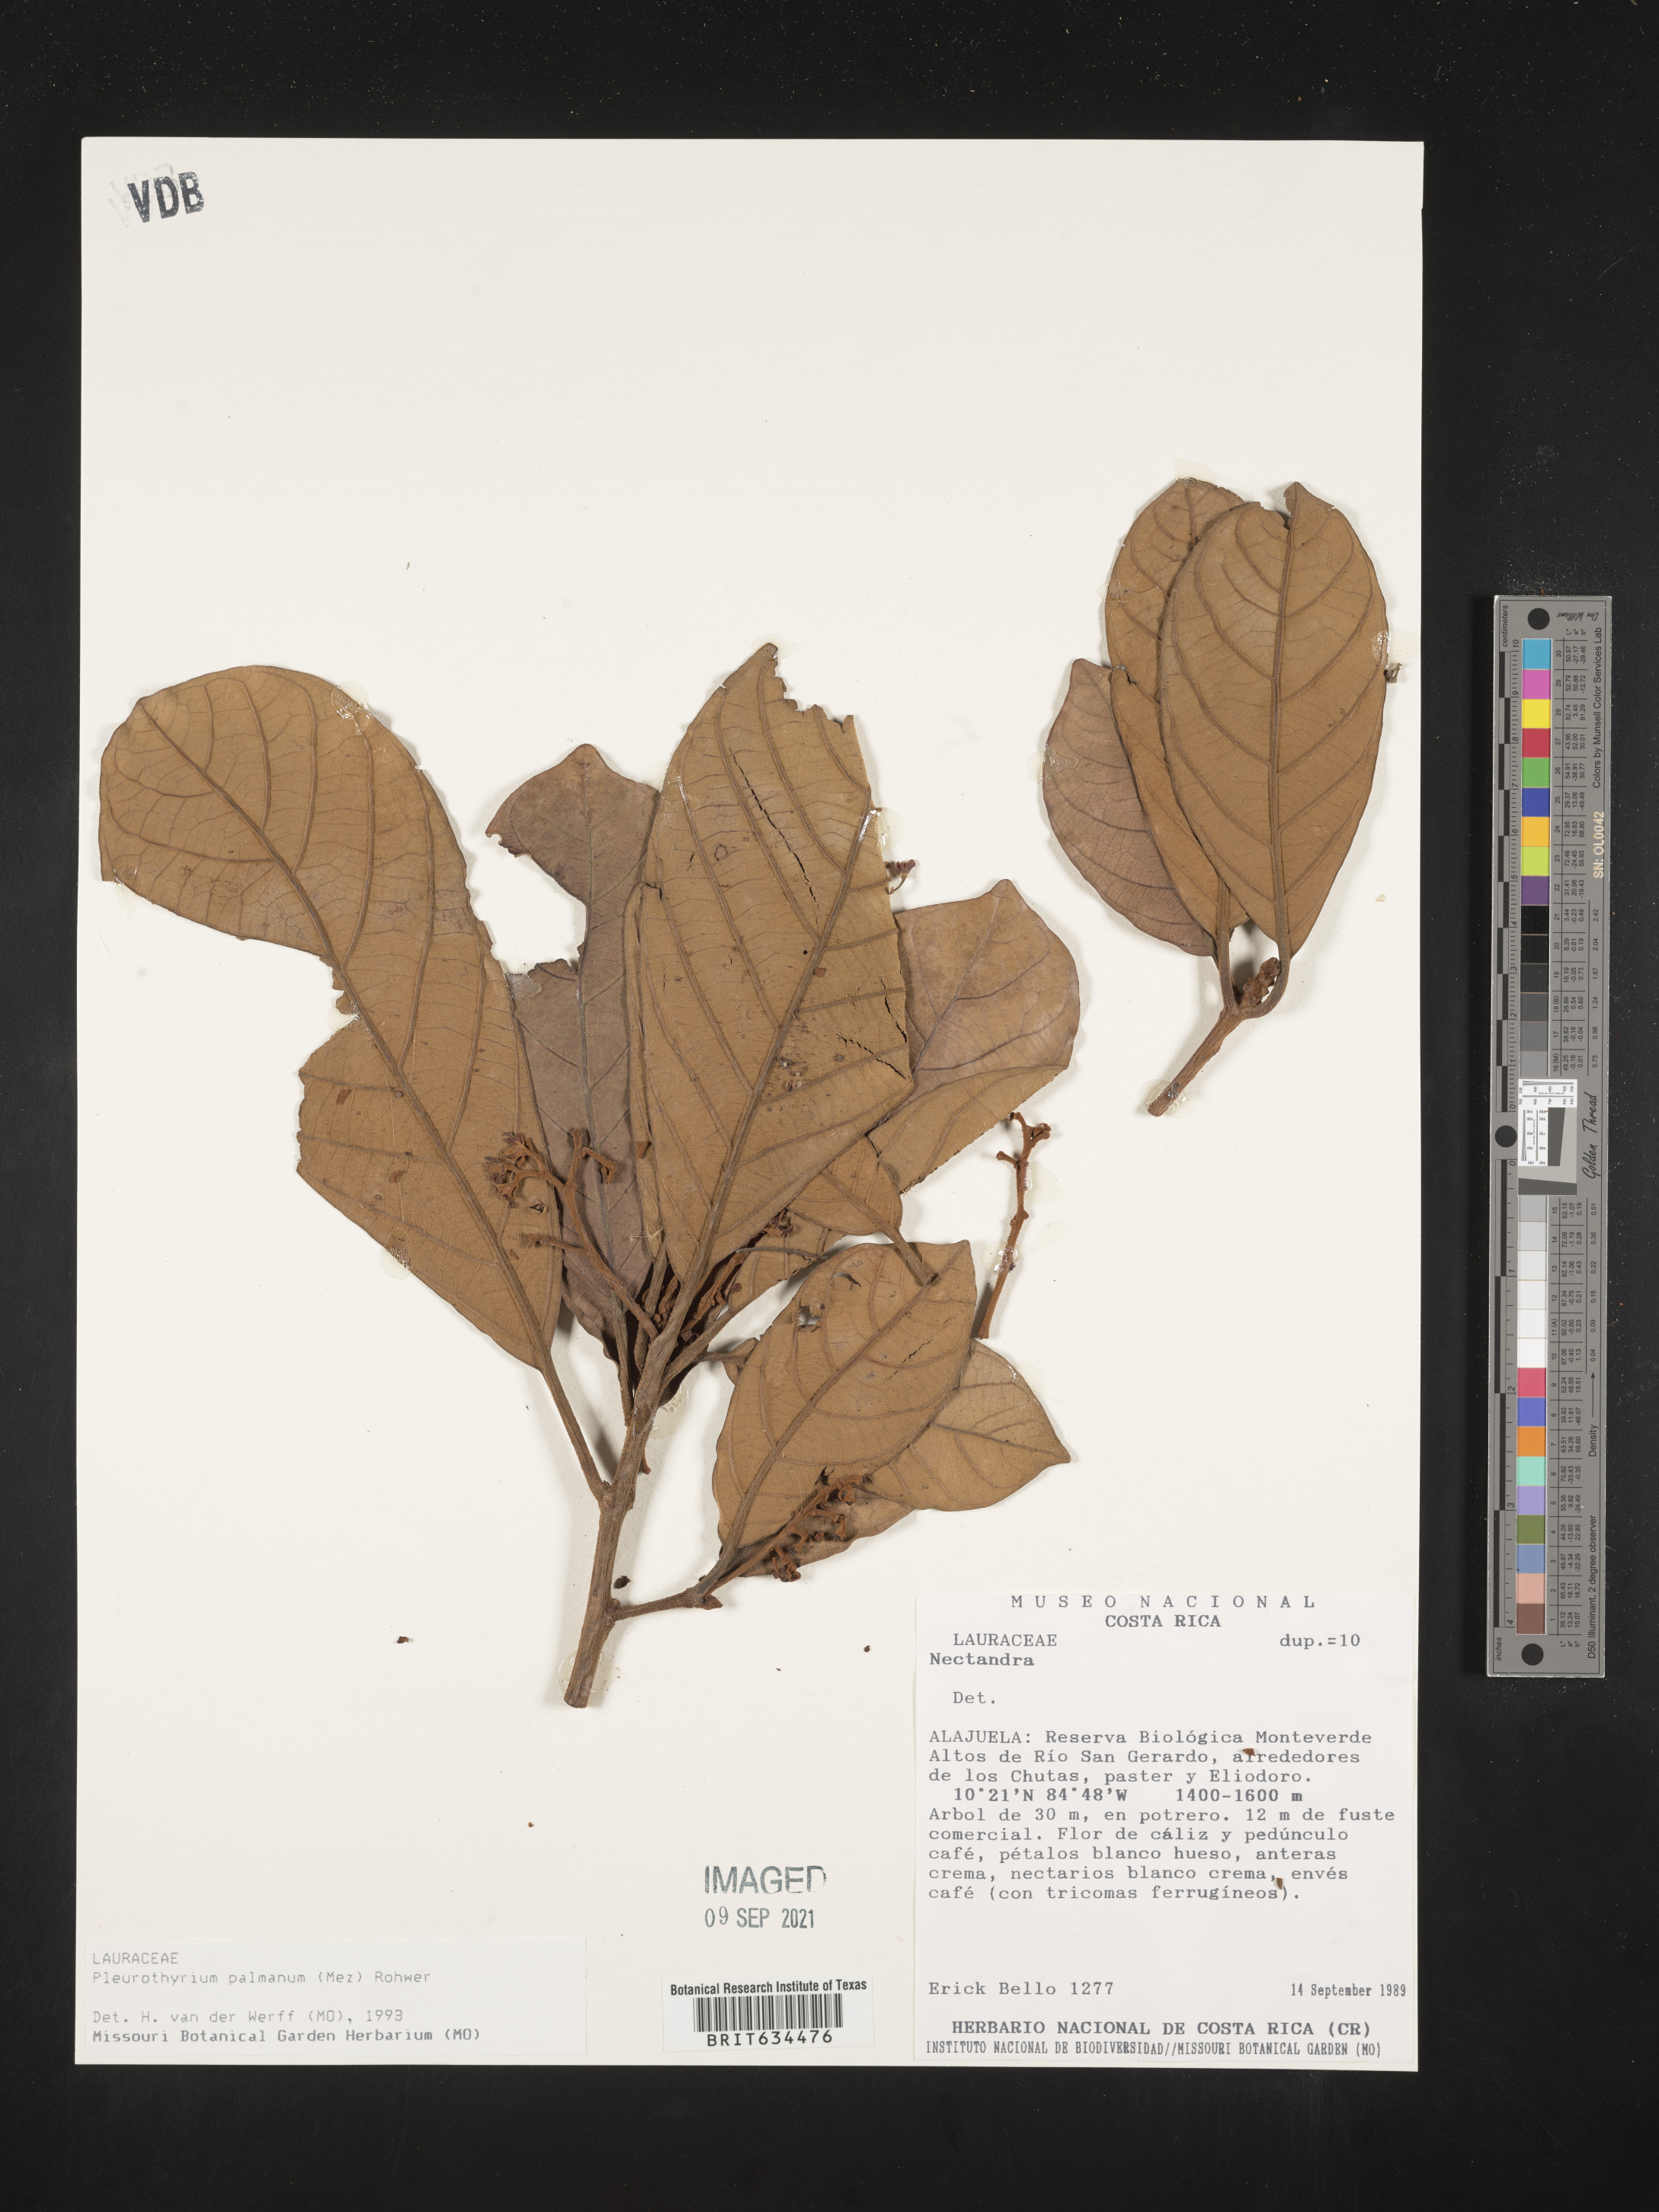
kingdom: Plantae
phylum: Tracheophyta
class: Magnoliopsida
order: Laurales
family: Lauraceae
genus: Pleurothyrium
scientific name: Pleurothyrium
